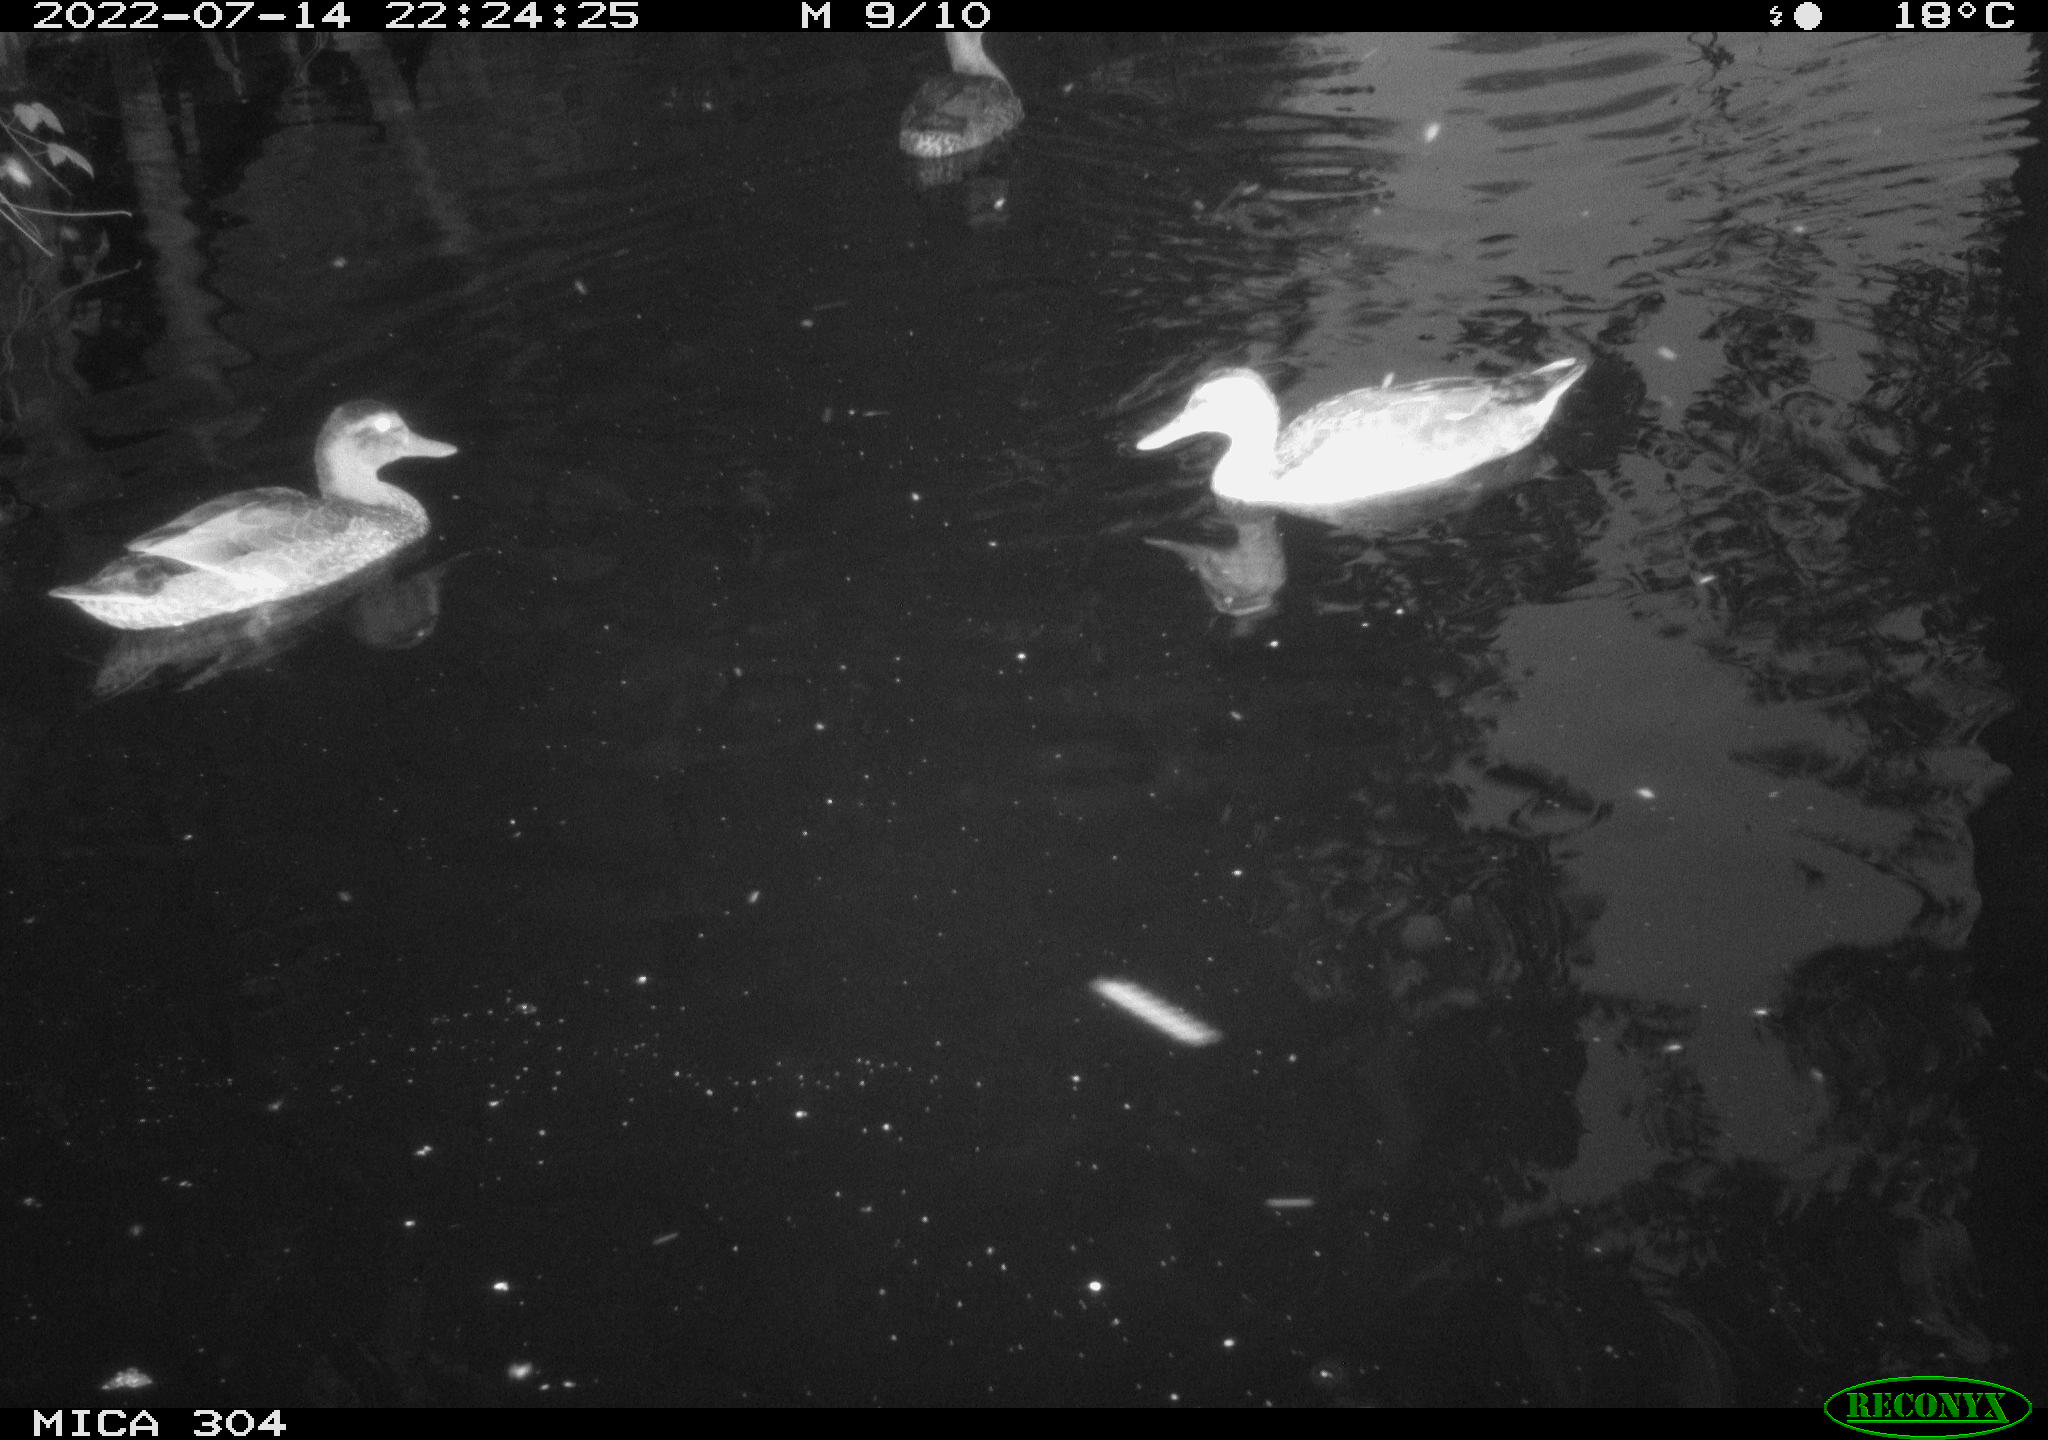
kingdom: Animalia
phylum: Chordata
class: Aves
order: Anseriformes
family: Anatidae
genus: Anas
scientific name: Anas platyrhynchos
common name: Mallard
